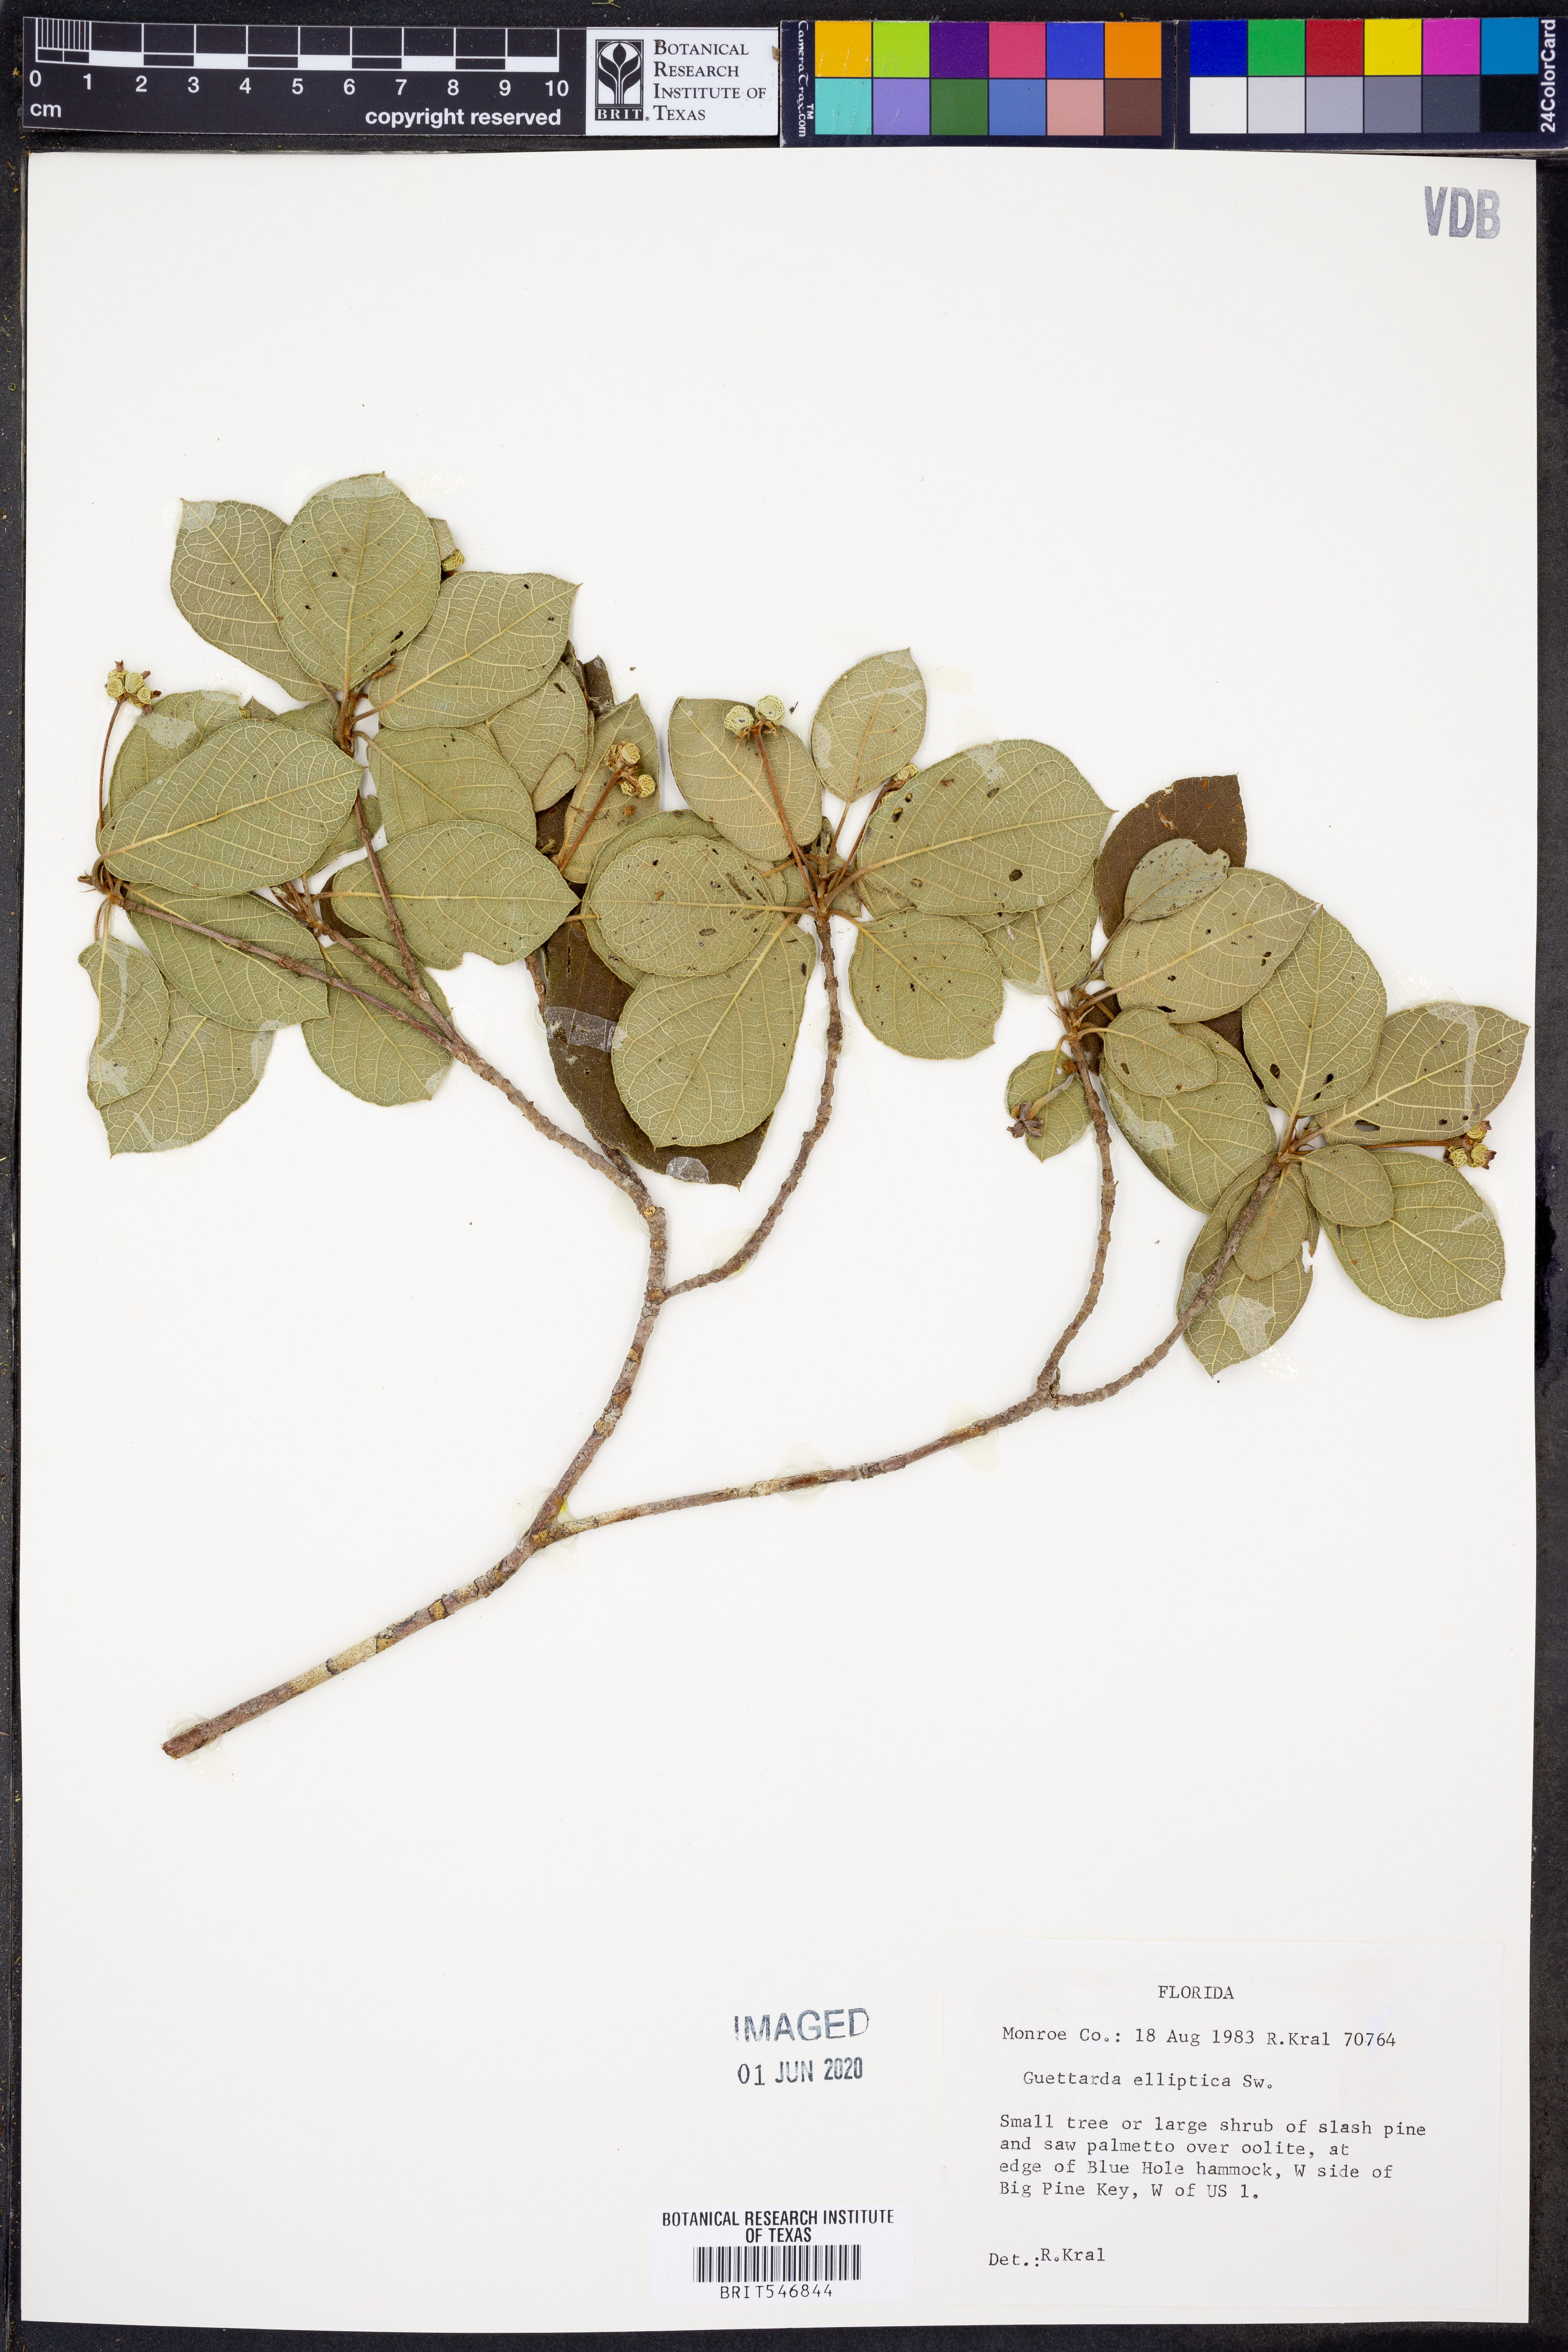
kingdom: Plantae
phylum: Tracheophyta
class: Magnoliopsida
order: Gentianales
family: Rubiaceae
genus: Guettarda
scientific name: Guettarda elliptica
